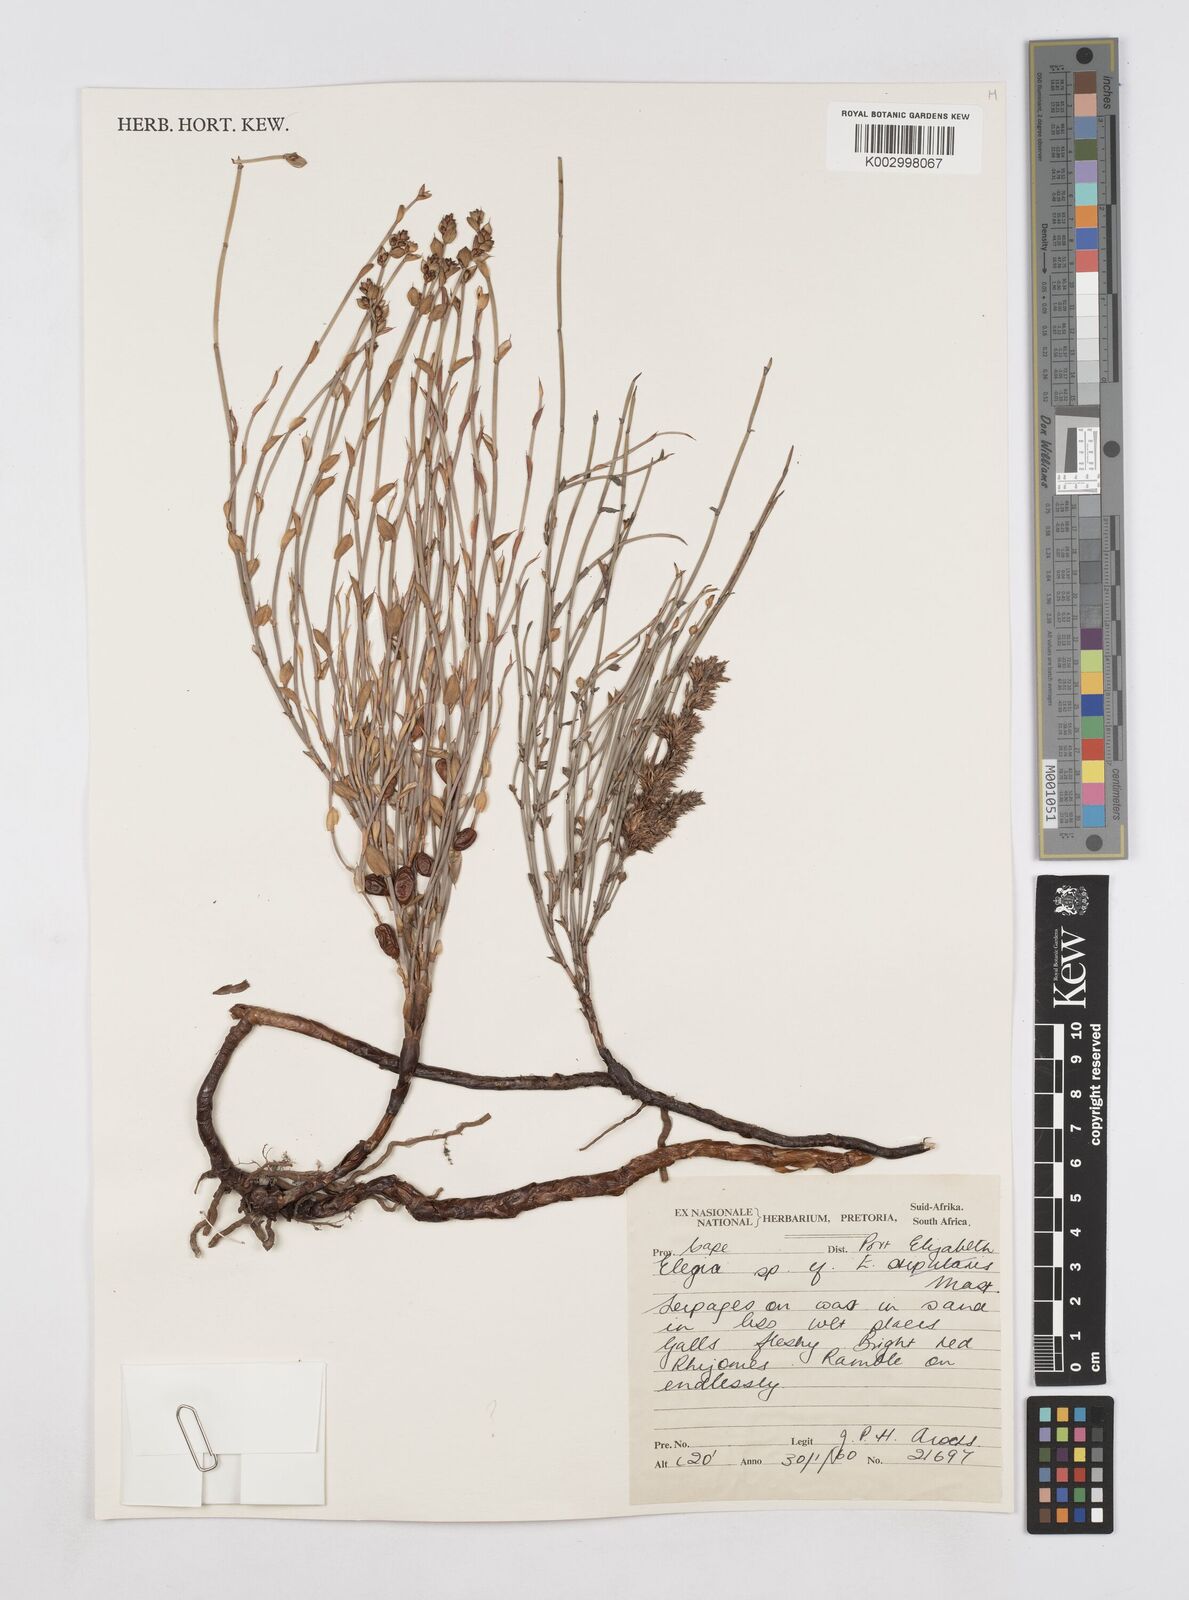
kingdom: Plantae
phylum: Tracheophyta
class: Liliopsida
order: Poales
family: Restionaceae
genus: Elegia
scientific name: Elegia
